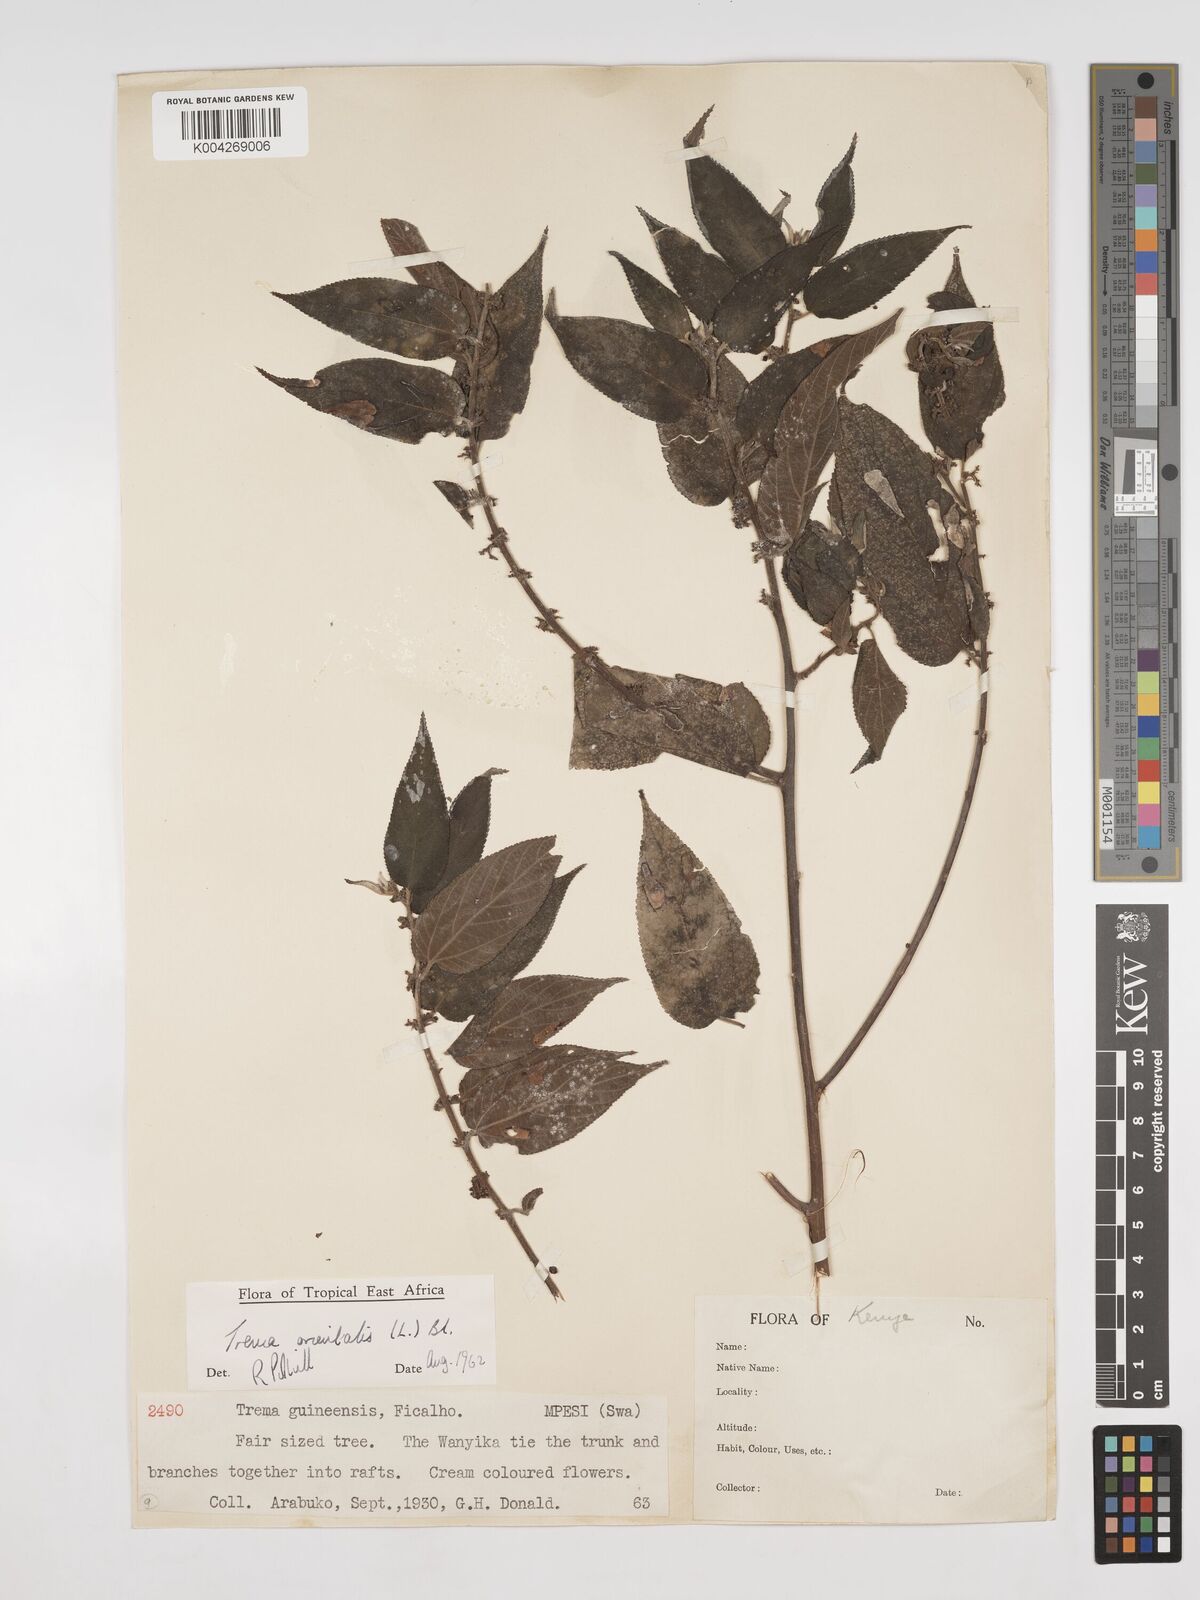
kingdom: Plantae
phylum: Tracheophyta
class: Magnoliopsida
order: Rosales
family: Cannabaceae
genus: Trema
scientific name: Trema orientale
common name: Indian charcoal tree
